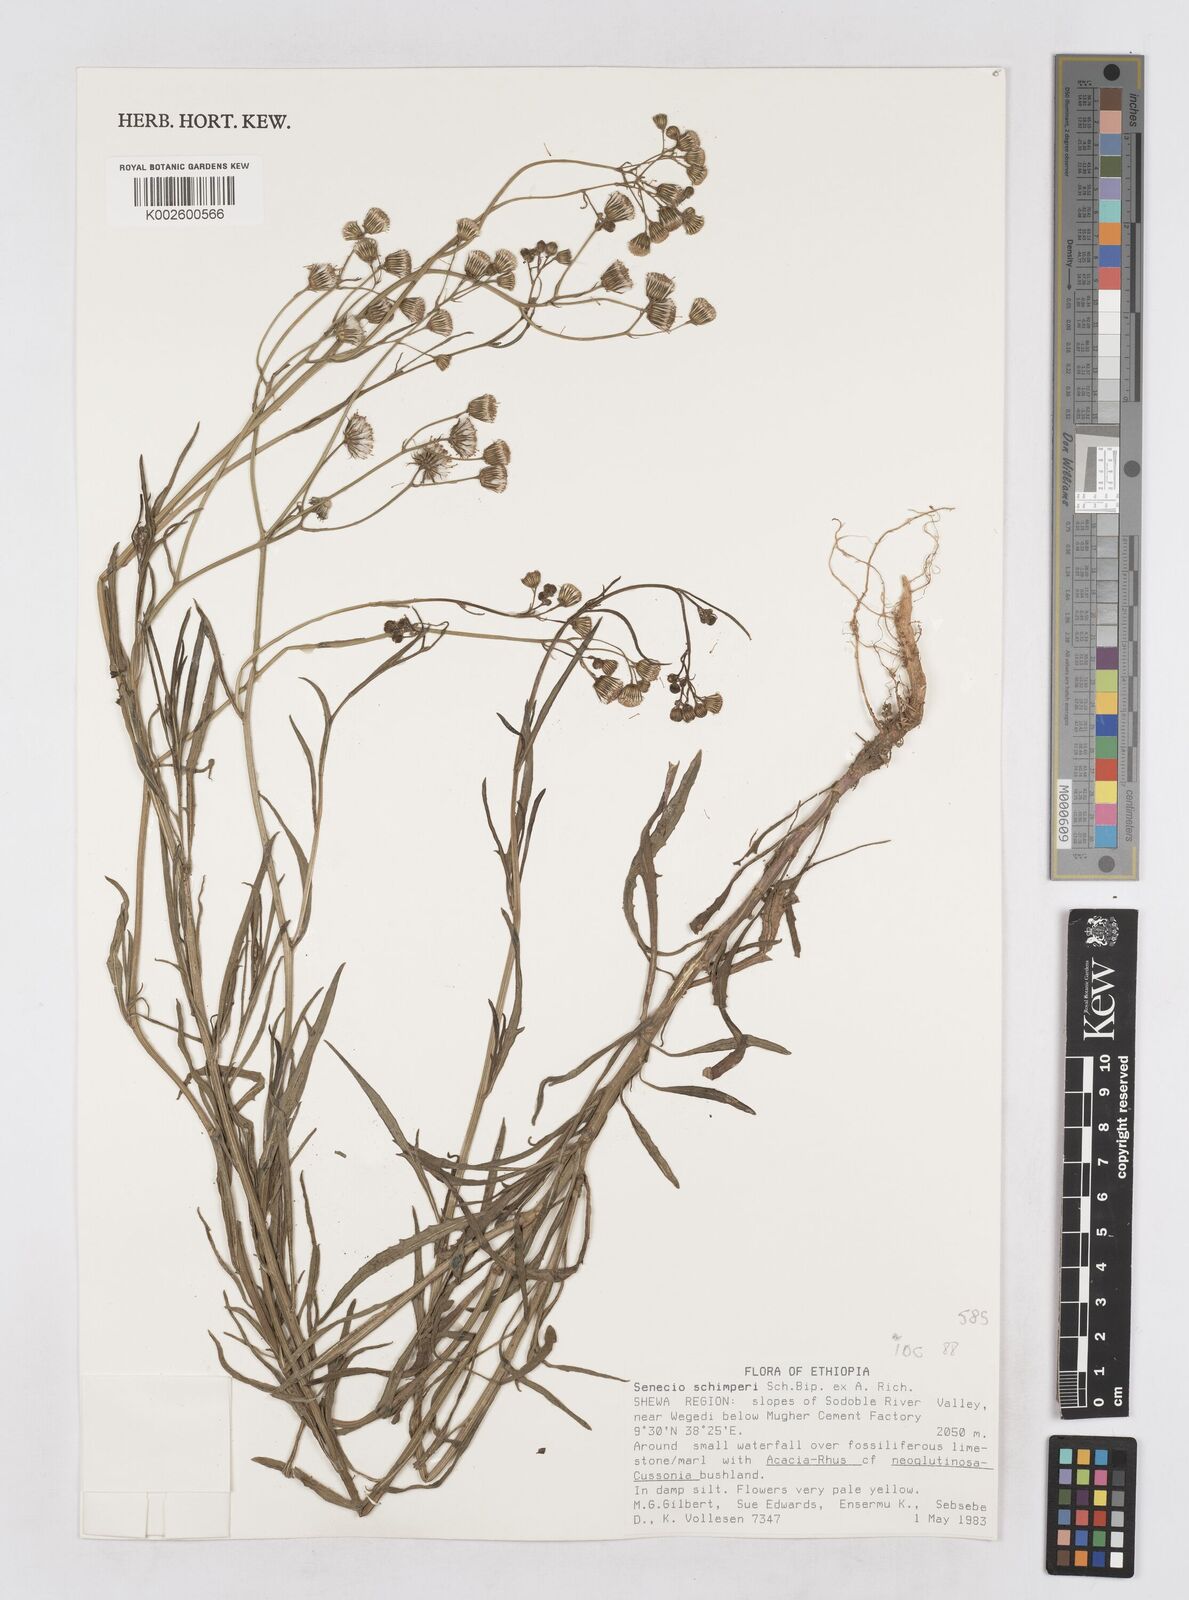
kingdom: Plantae
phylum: Tracheophyta
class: Magnoliopsida
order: Asterales
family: Asteraceae
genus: Senecio
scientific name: Senecio schimperi
